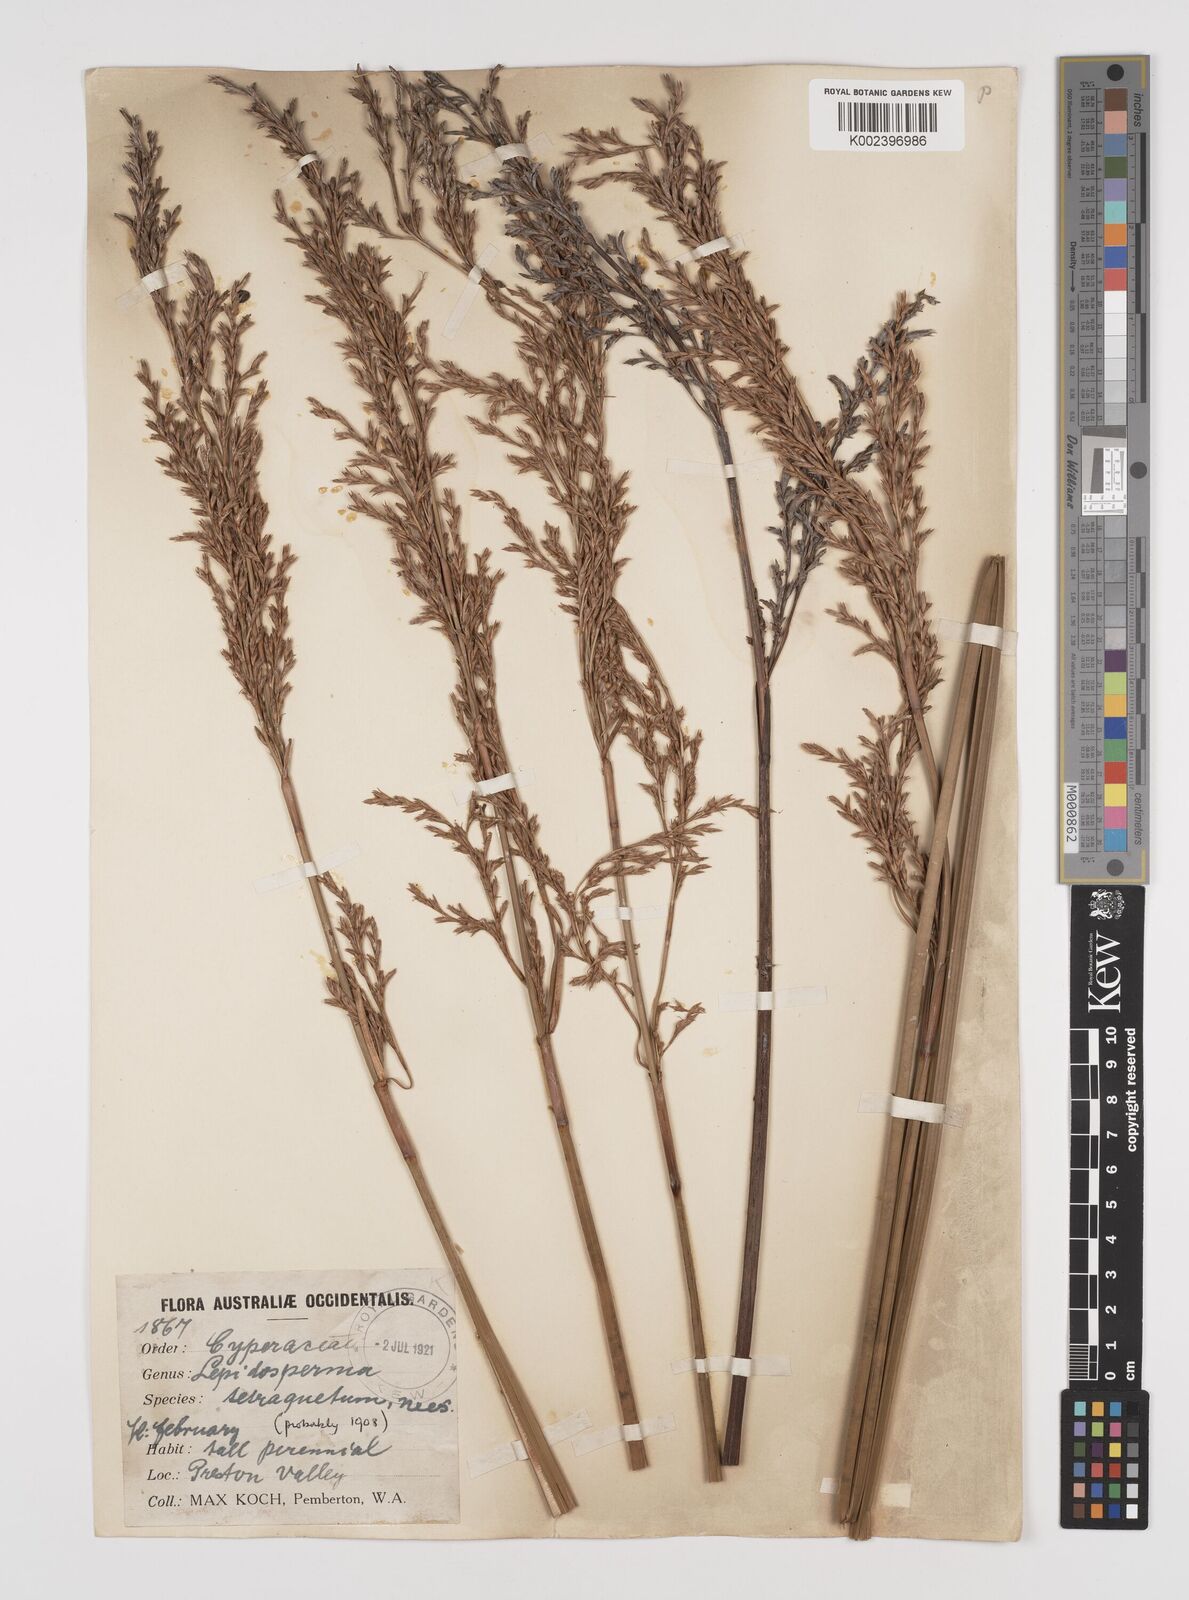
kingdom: Plantae
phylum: Tracheophyta
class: Liliopsida
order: Poales
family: Cyperaceae
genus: Lepidosperma
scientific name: Lepidosperma tetraquetrum
